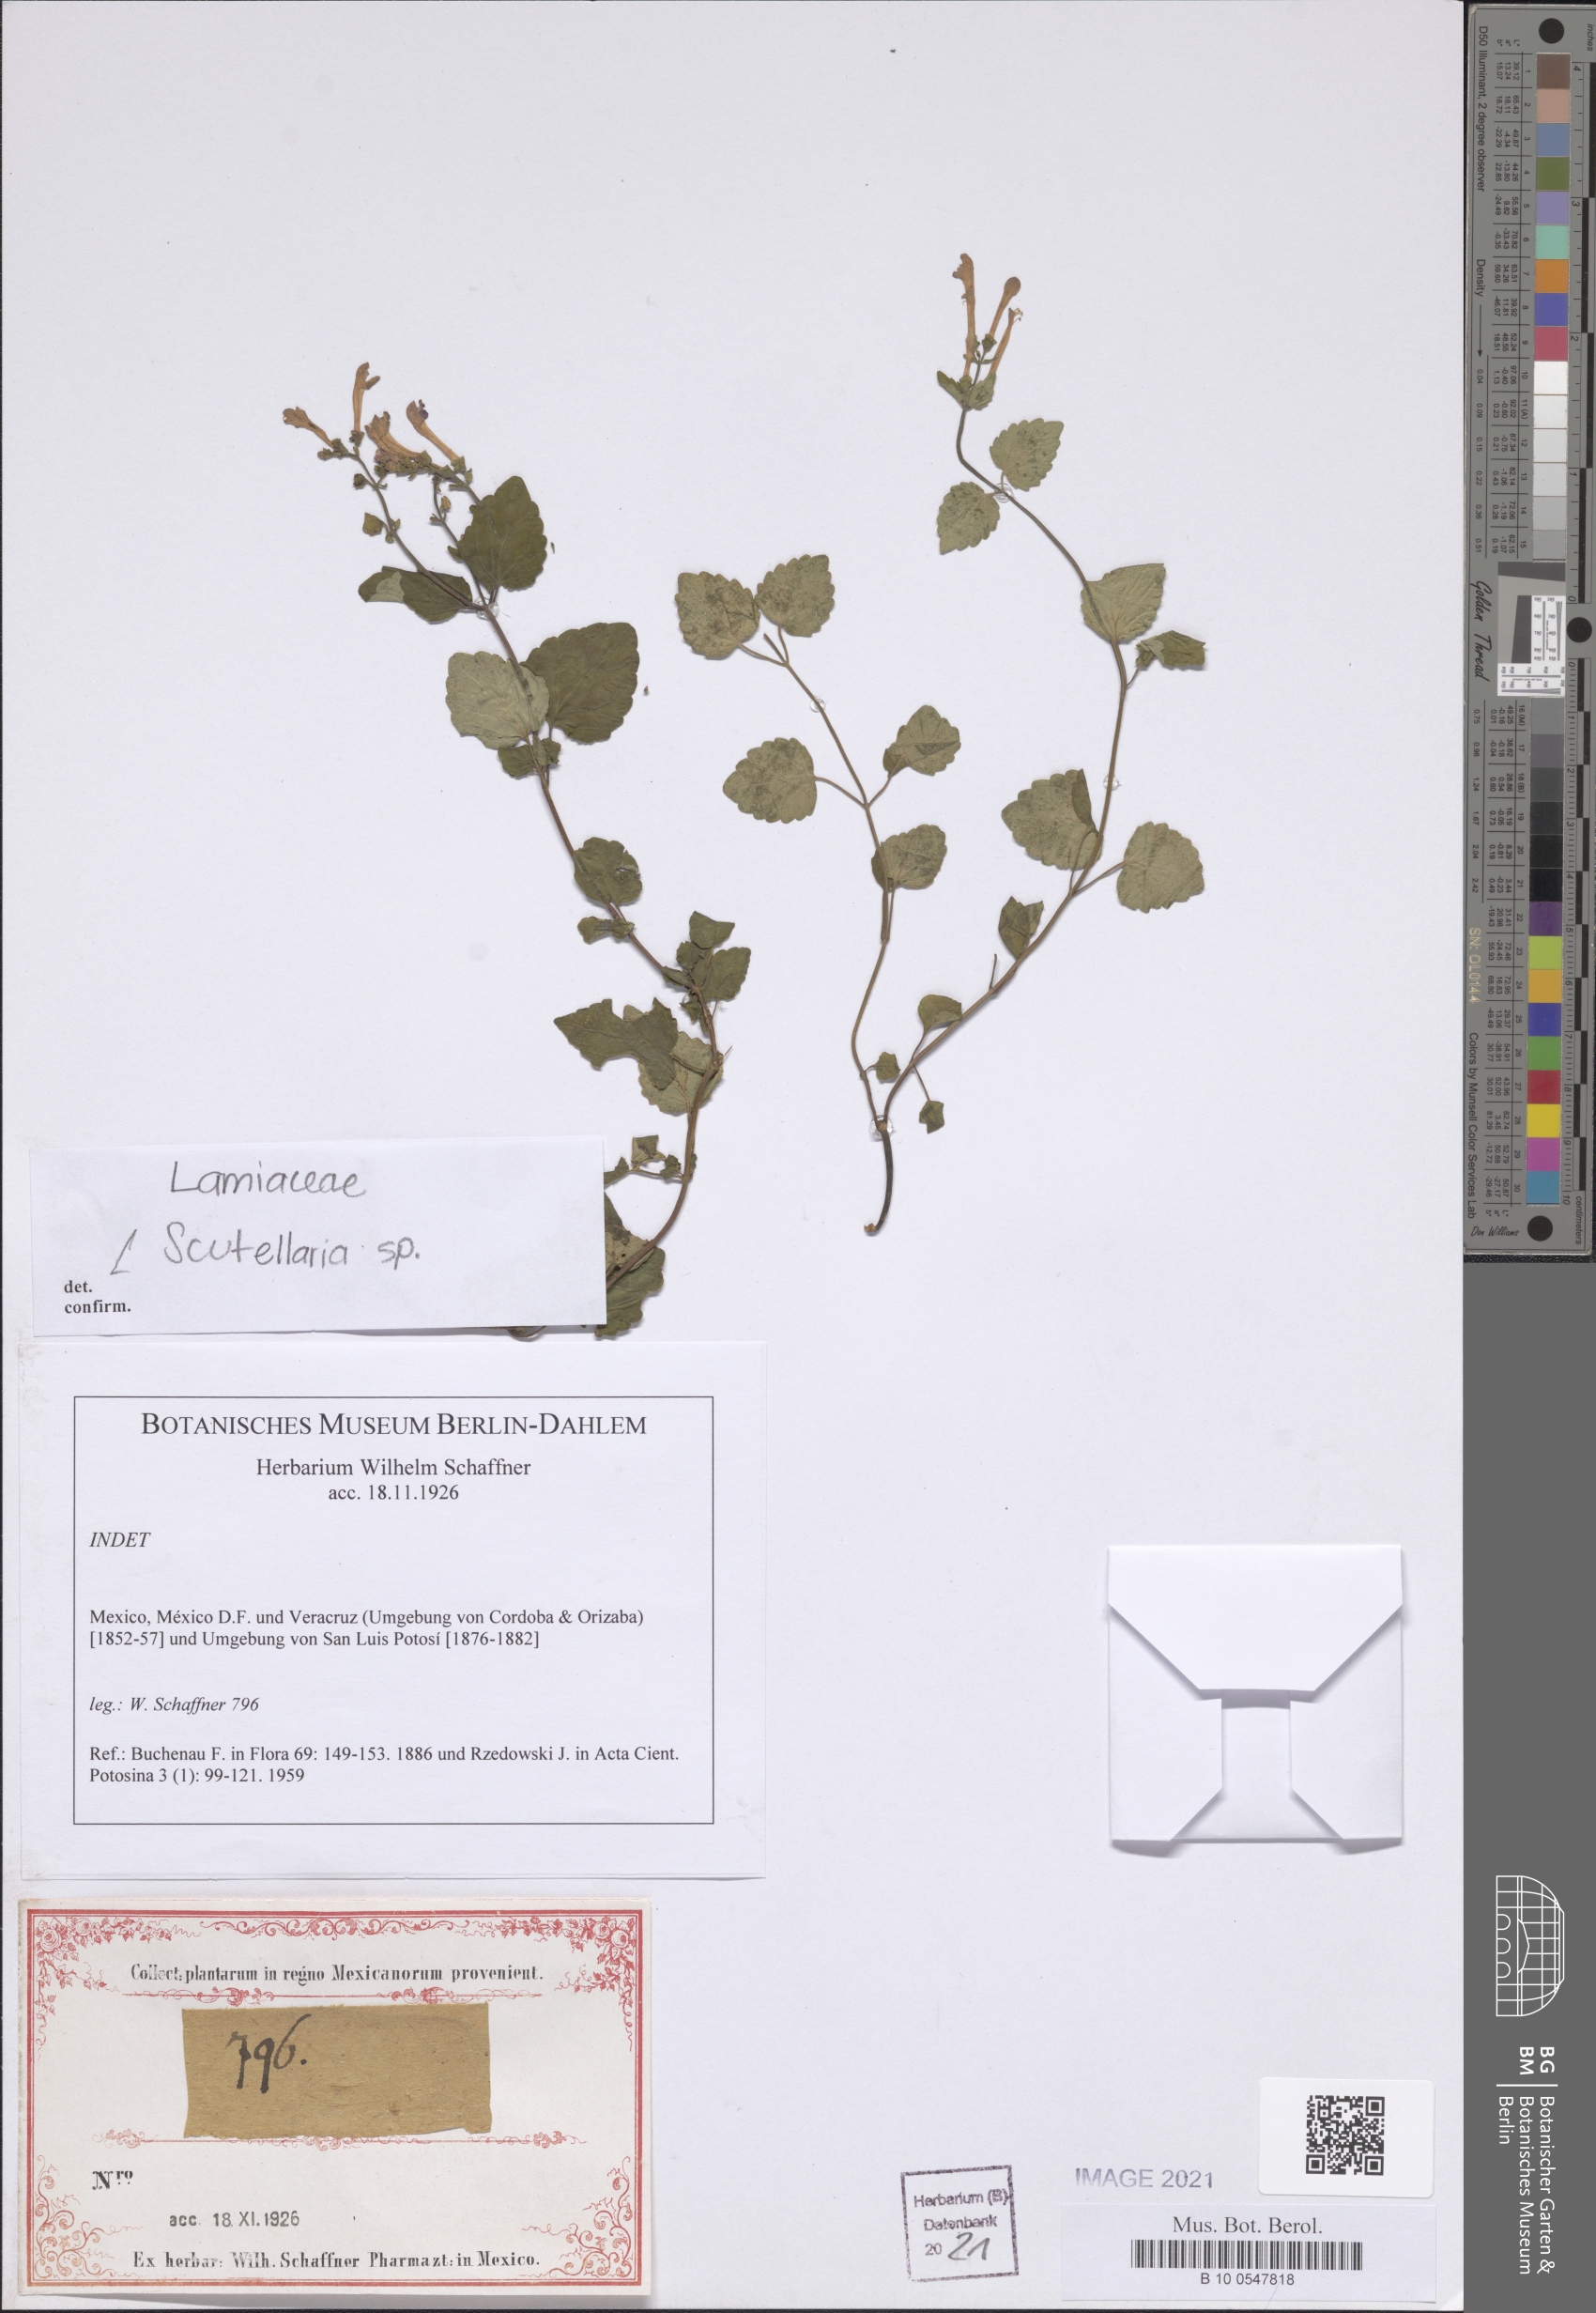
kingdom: Plantae
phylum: Tracheophyta
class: Magnoliopsida
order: Lamiales
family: Lamiaceae
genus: Scutellaria
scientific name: Scutellaria
